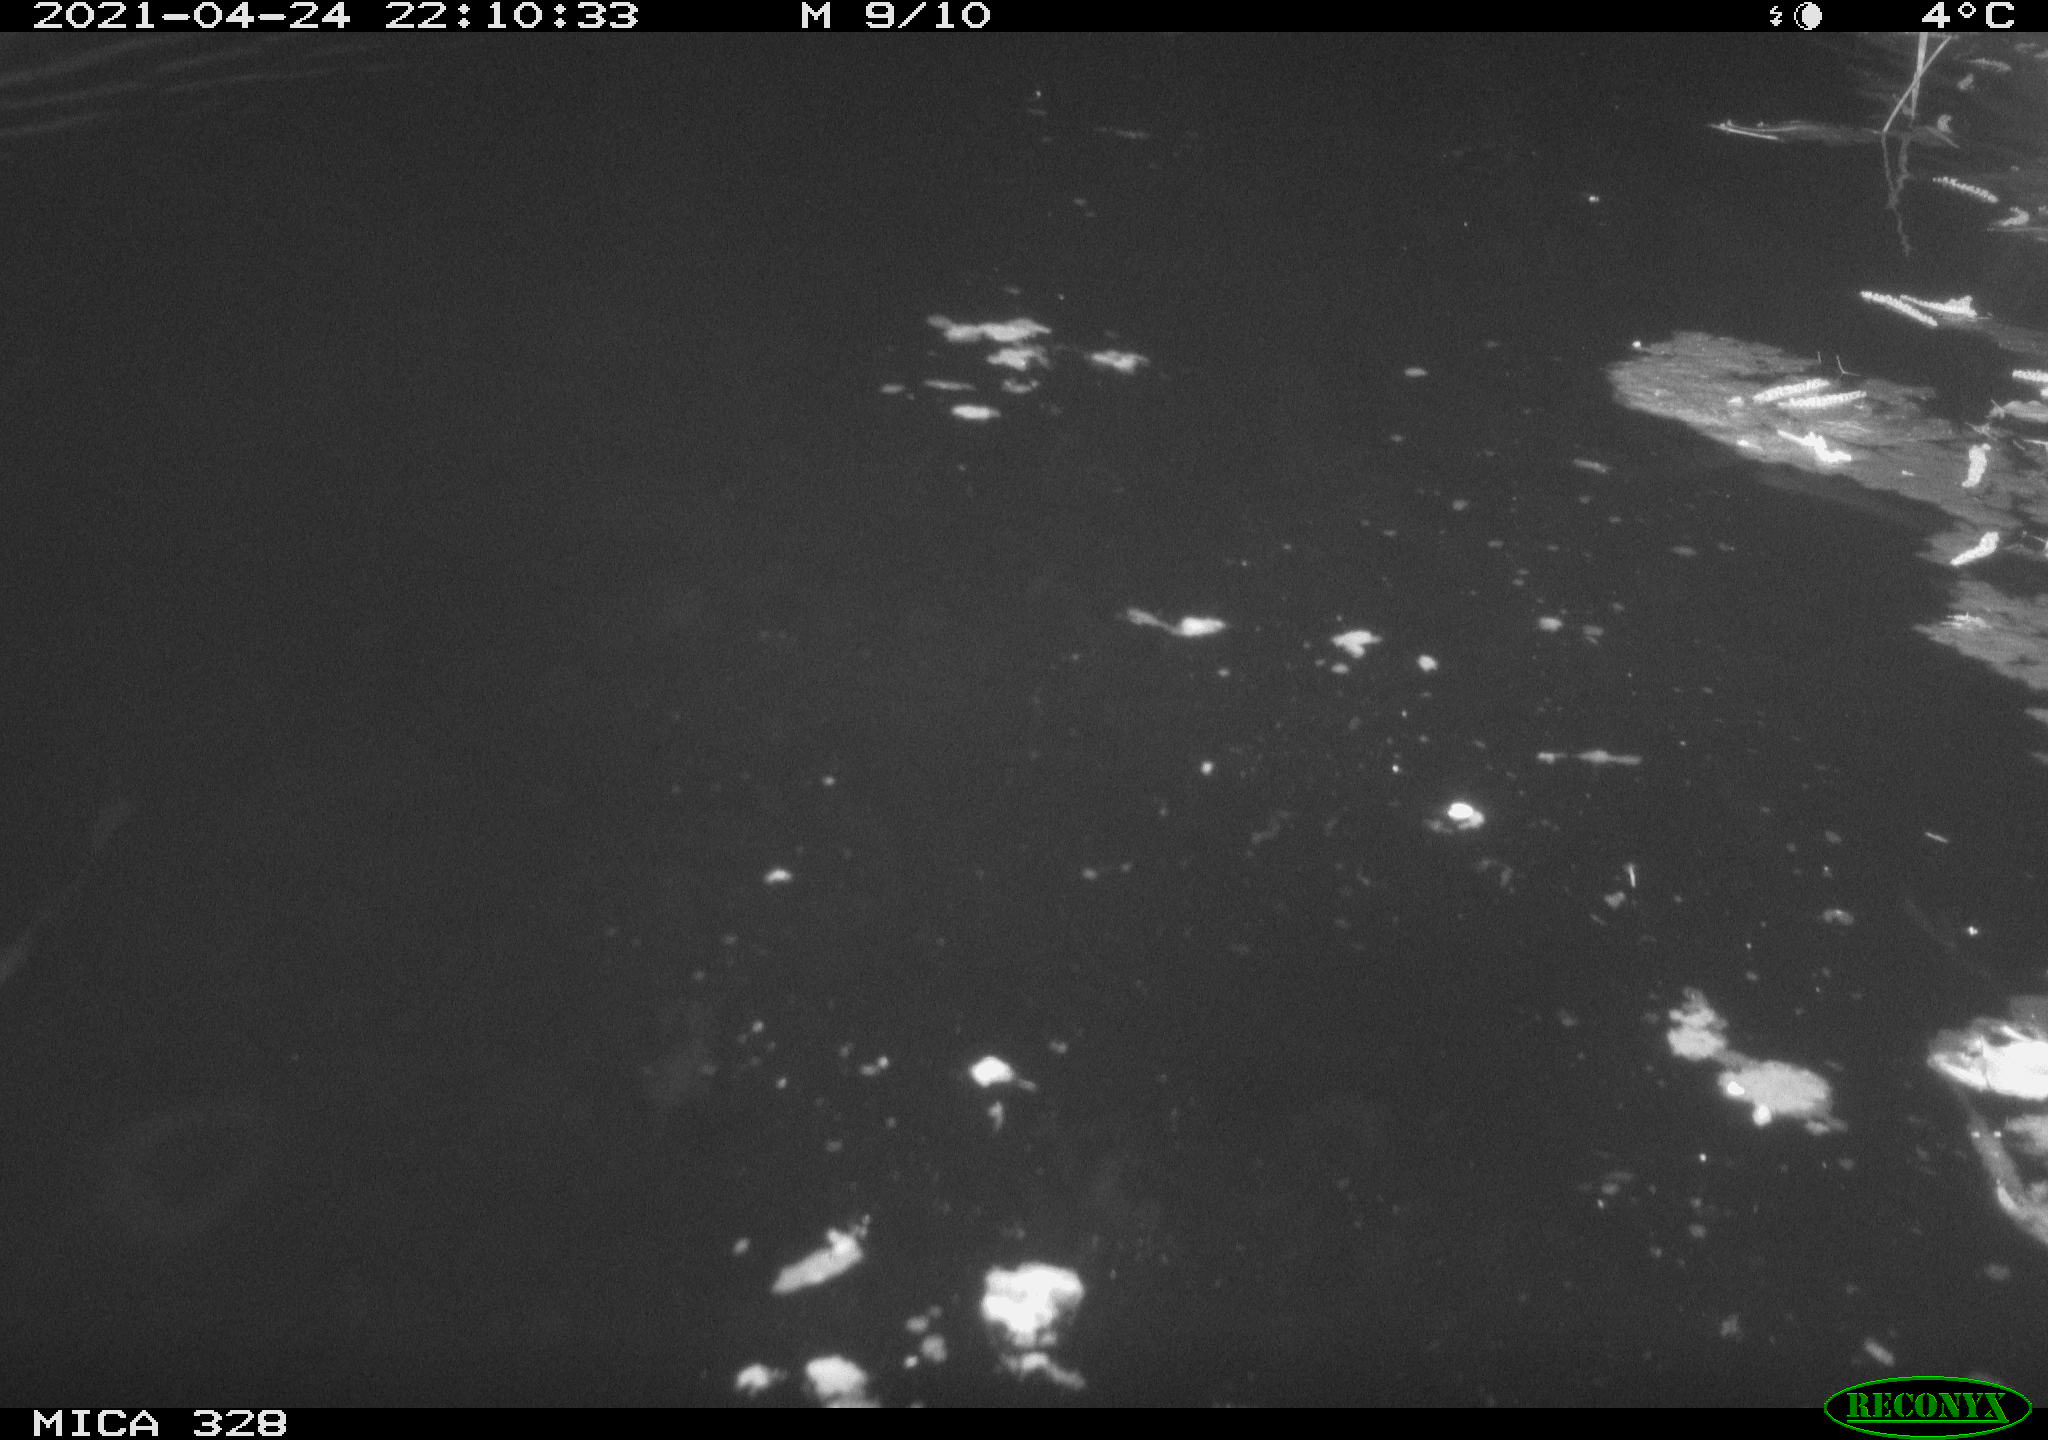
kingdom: Animalia
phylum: Chordata
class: Mammalia
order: Rodentia
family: Cricetidae
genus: Ondatra
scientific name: Ondatra zibethicus
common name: Muskrat
